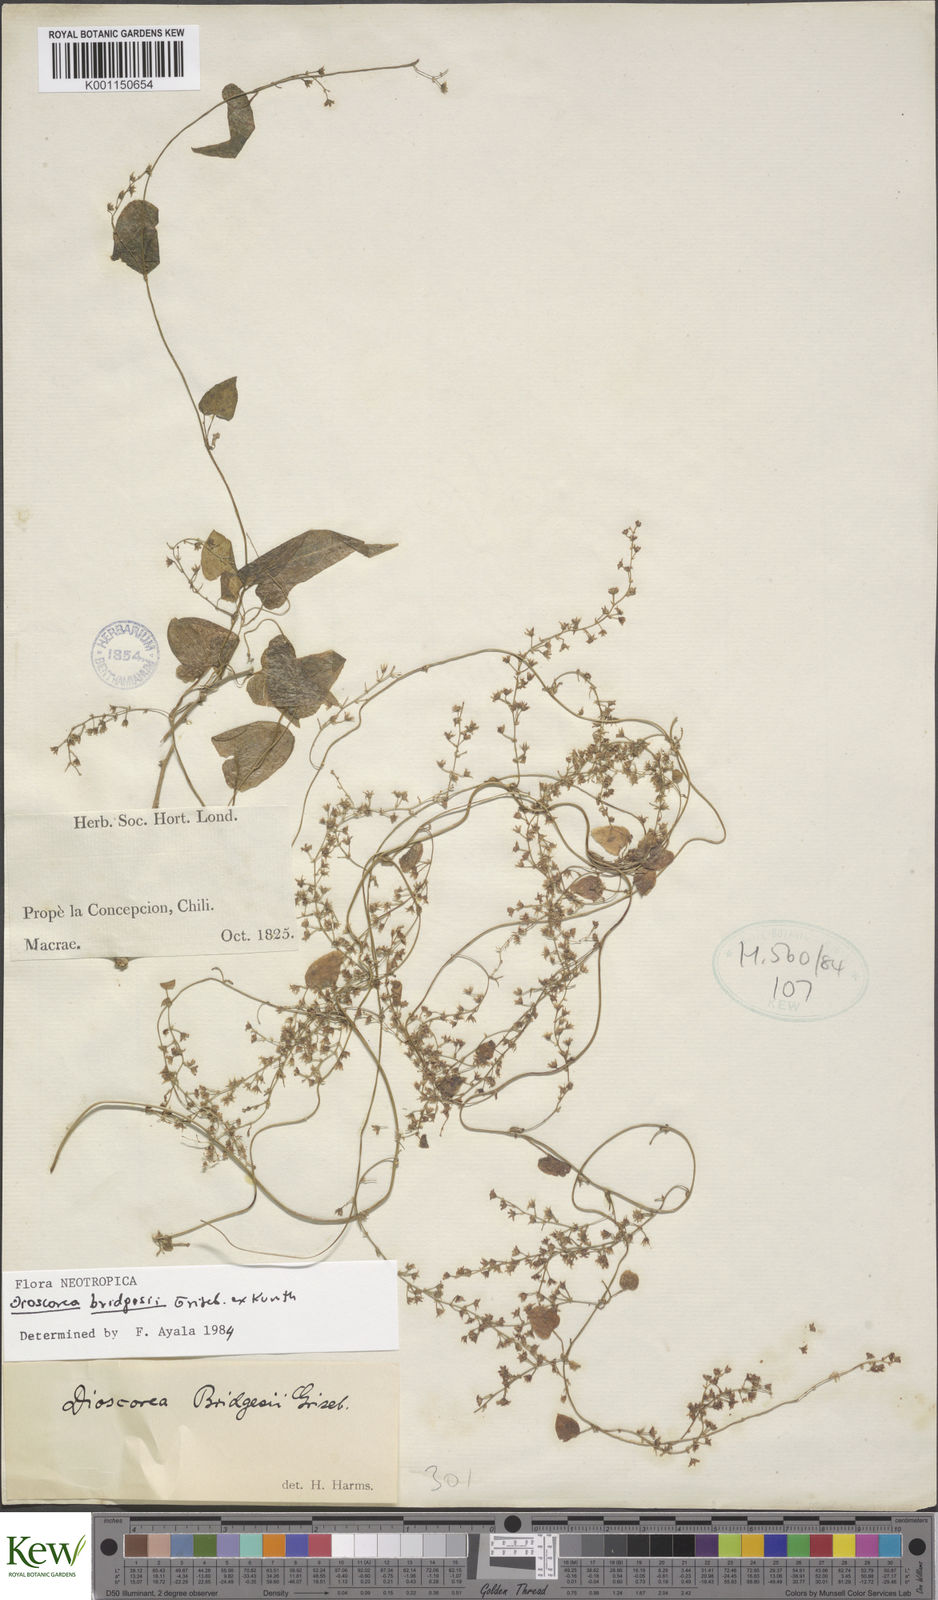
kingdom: Plantae
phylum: Tracheophyta
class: Liliopsida
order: Dioscoreales
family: Dioscoreaceae
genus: Dioscorea
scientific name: Dioscorea bridgesii
